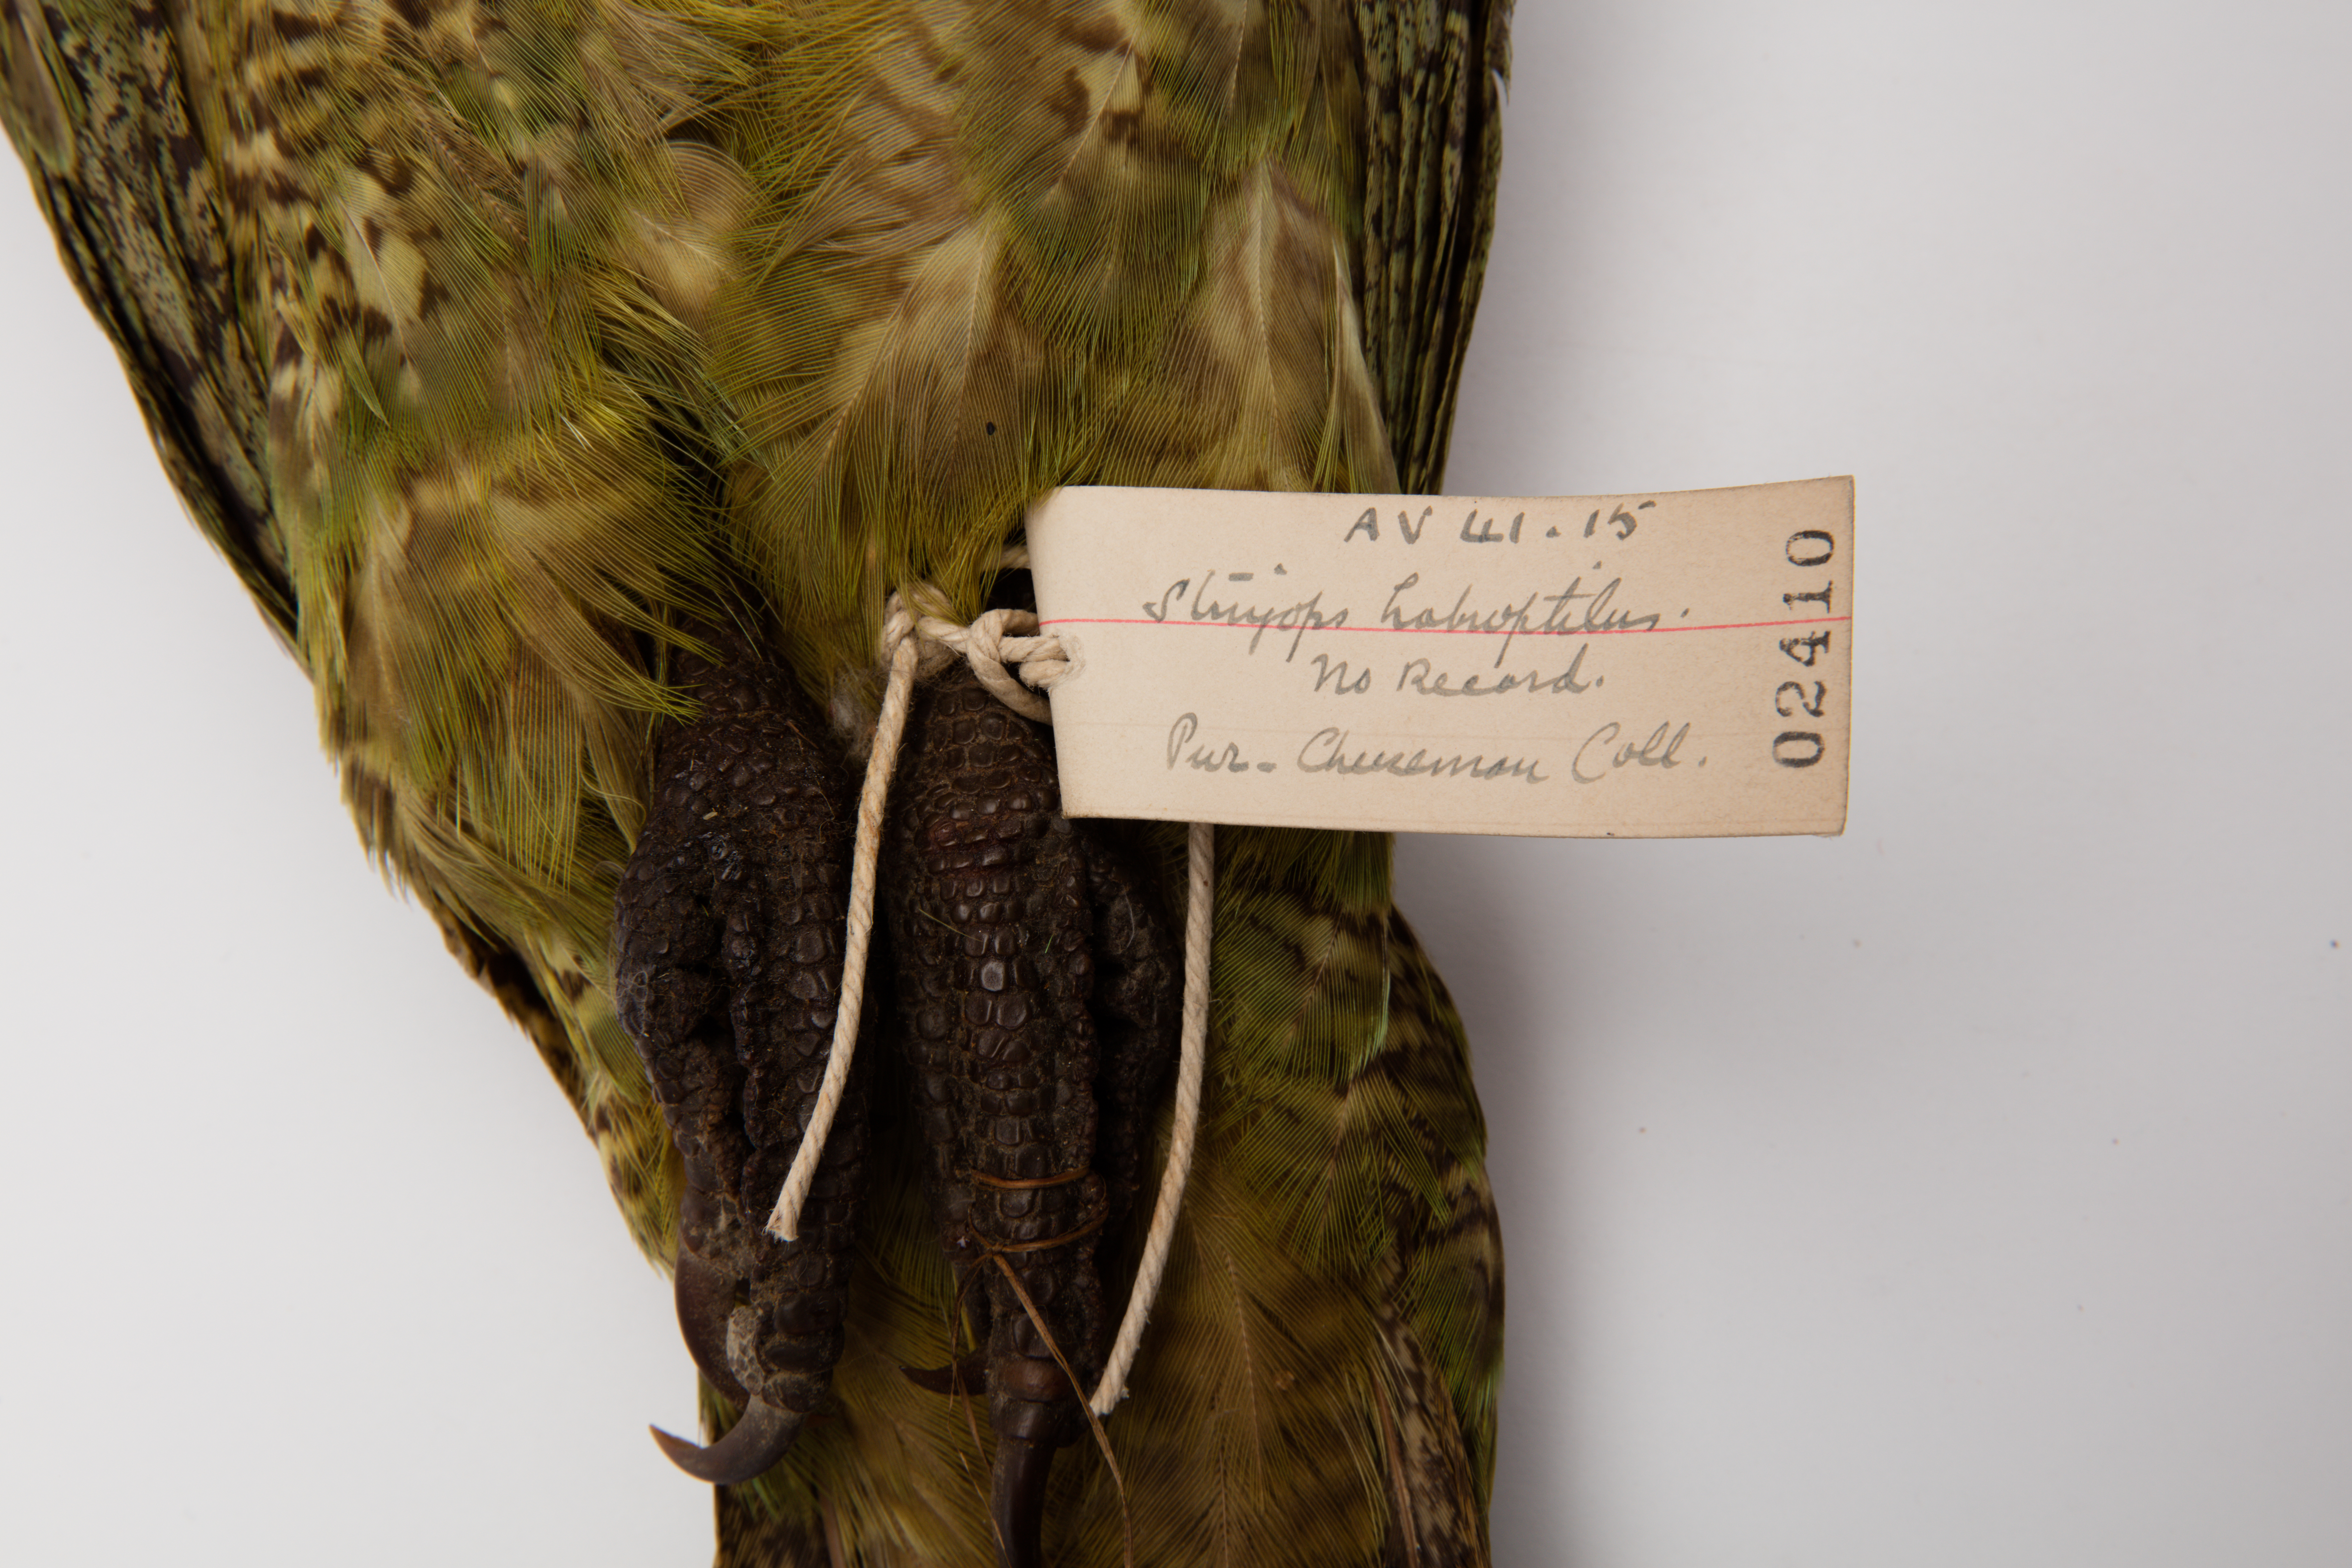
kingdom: Animalia
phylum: Chordata
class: Aves
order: Psittaciformes
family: Psittacidae
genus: Strigops
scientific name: Strigops habroptila
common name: Kakapo
